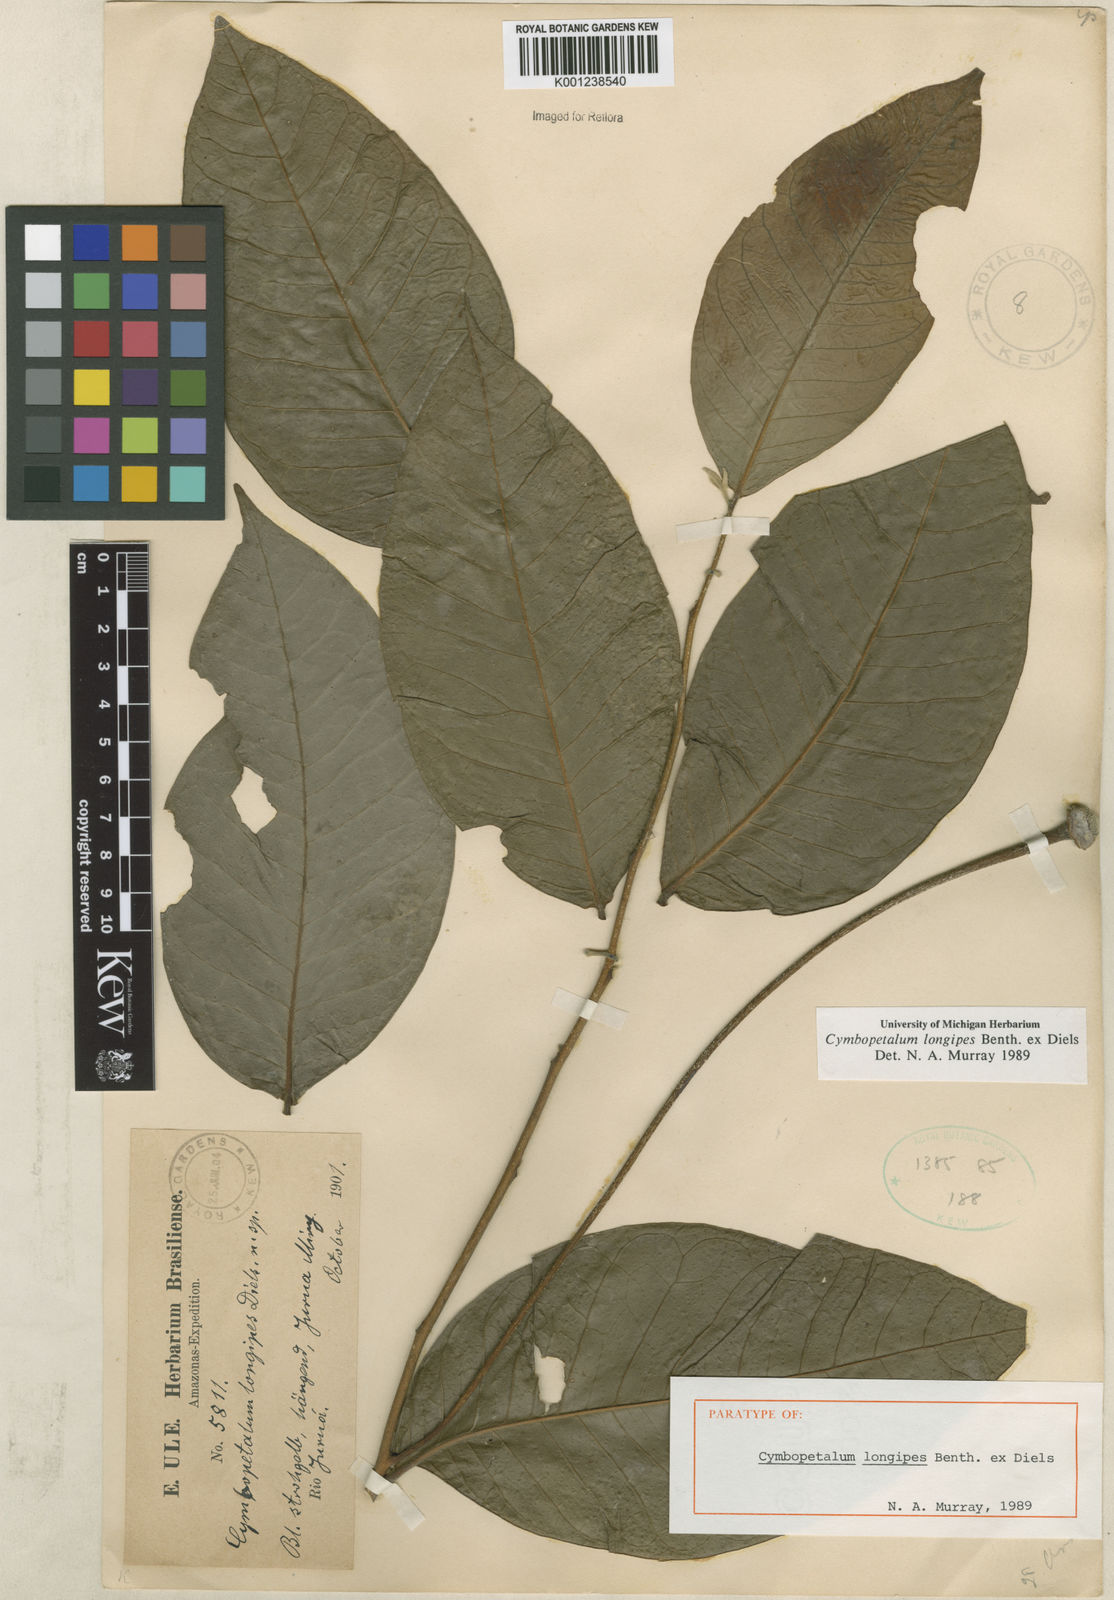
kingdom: Plantae
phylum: Tracheophyta
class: Magnoliopsida
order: Magnoliales
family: Annonaceae
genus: Cymbopetalum
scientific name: Cymbopetalum longipes
